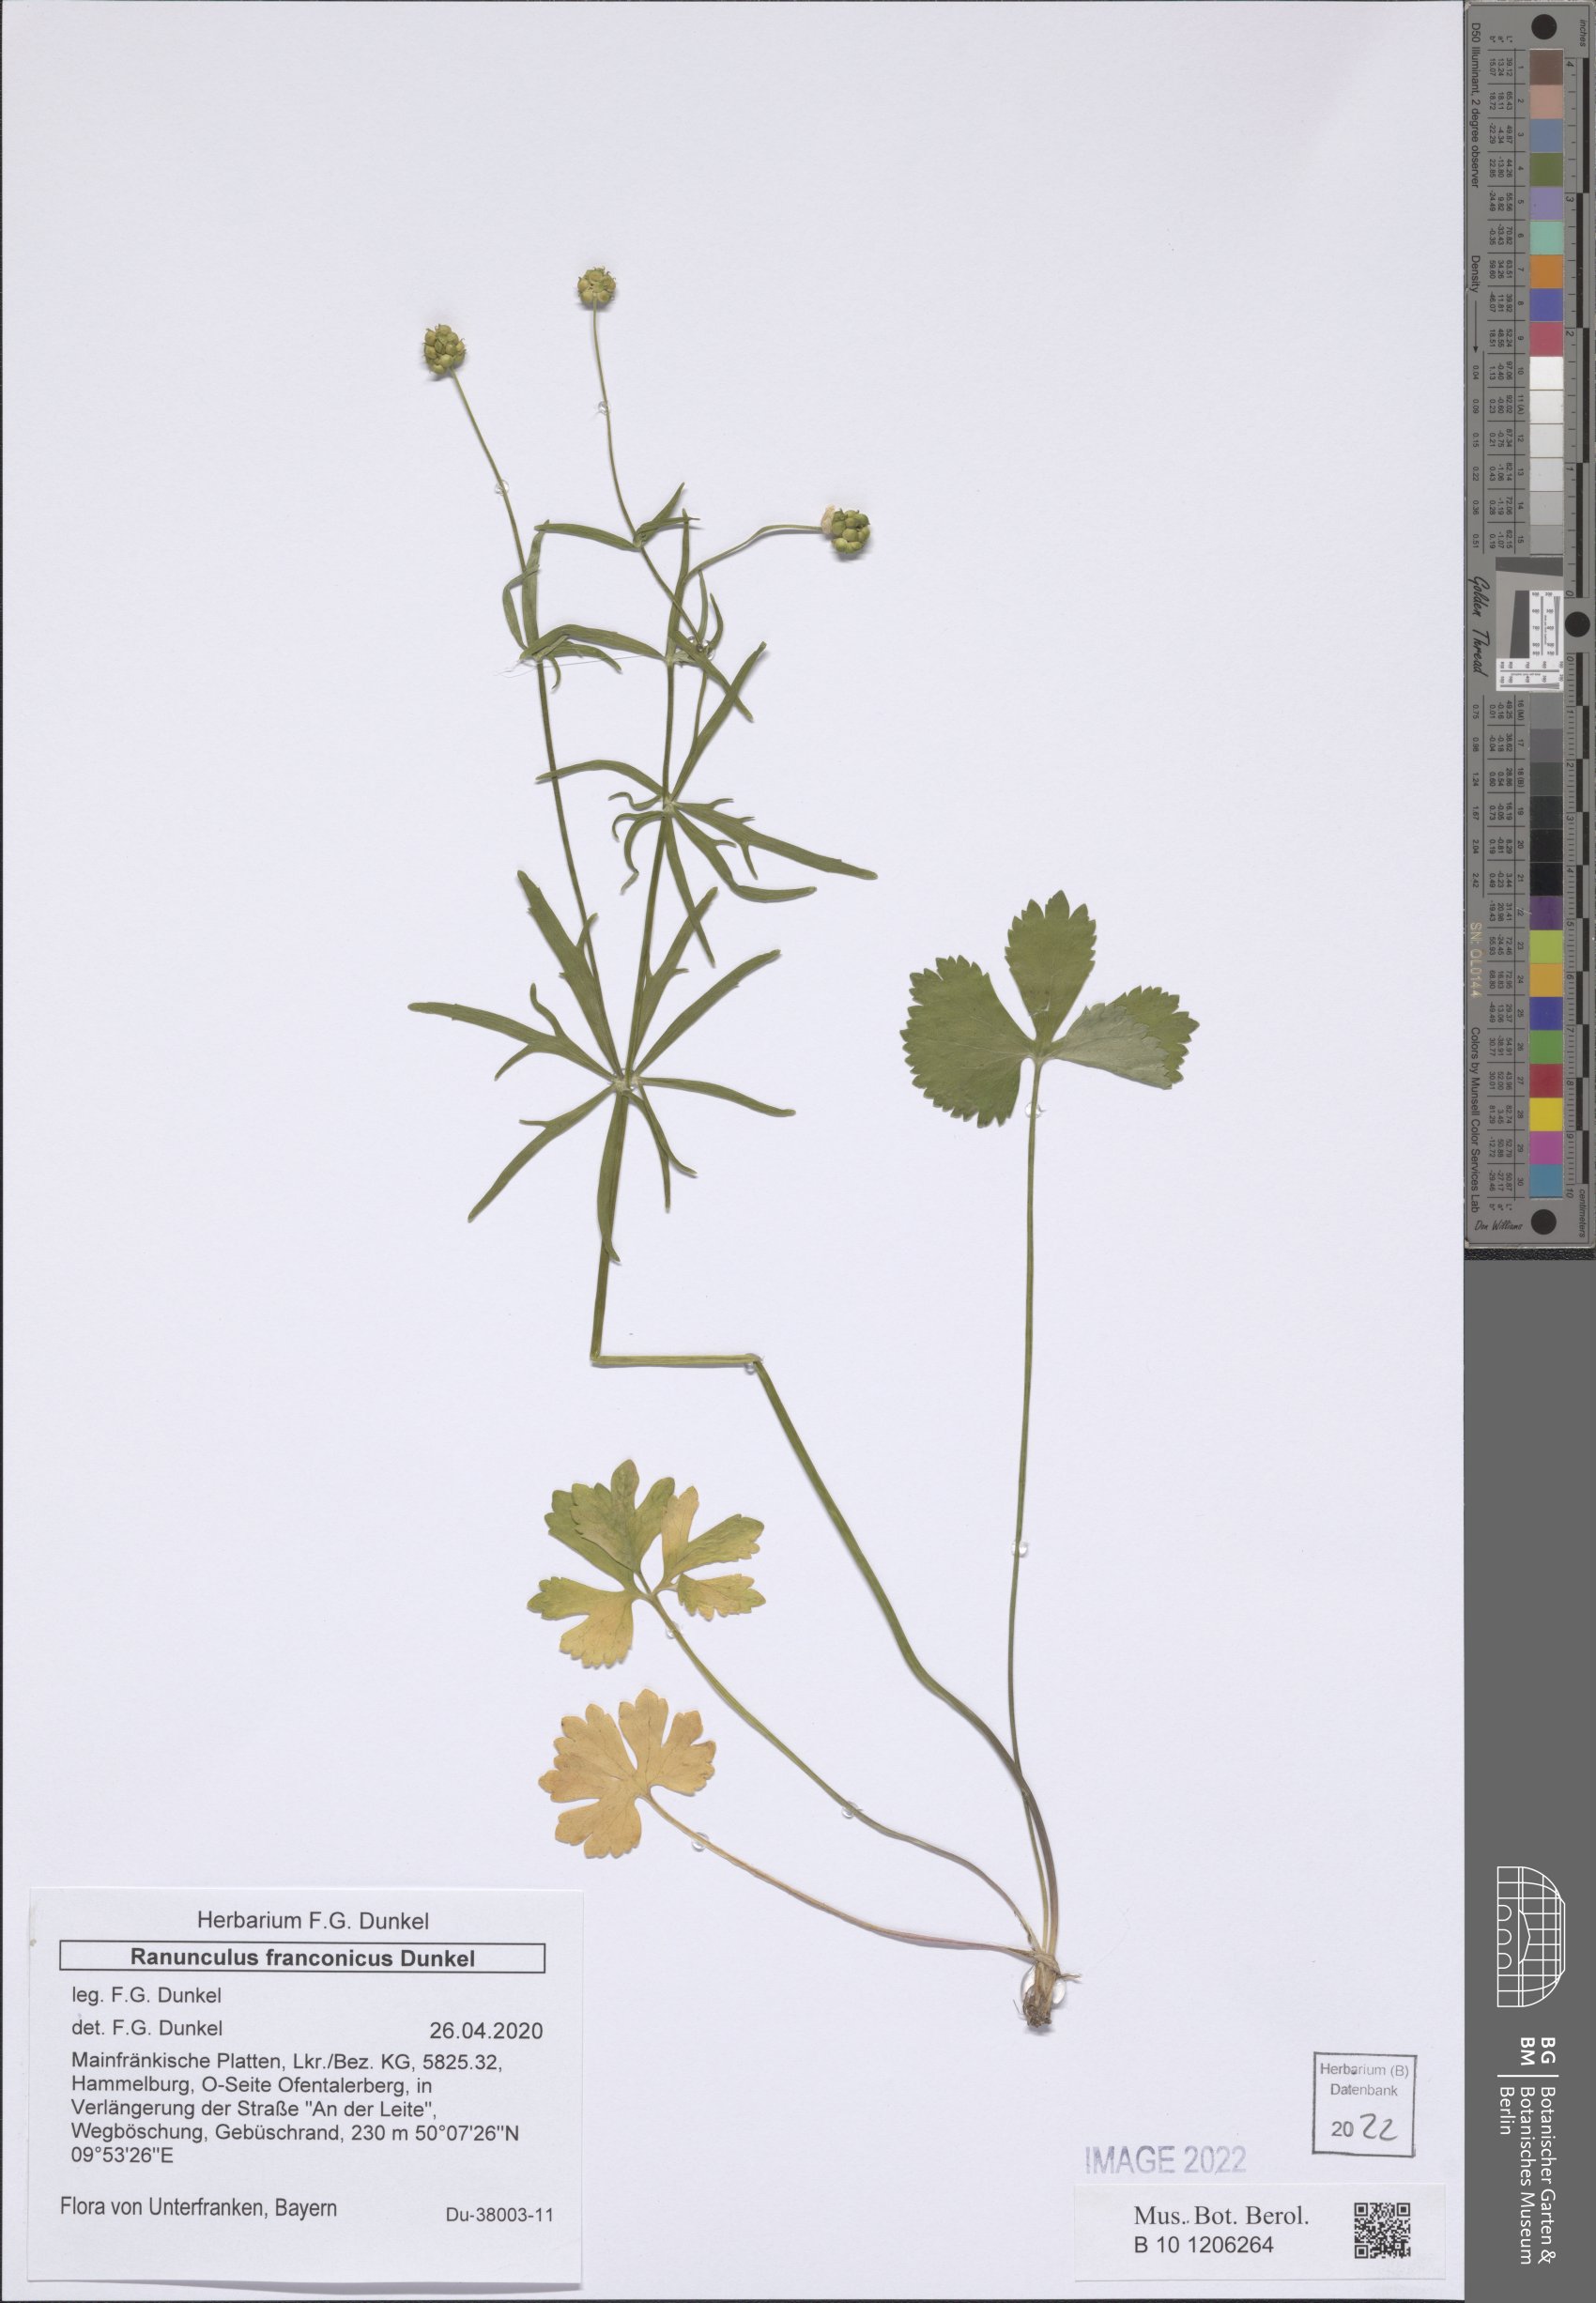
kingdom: Plantae
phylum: Tracheophyta
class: Magnoliopsida
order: Ranunculales
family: Ranunculaceae
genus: Ranunculus
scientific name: Ranunculus franconicus
